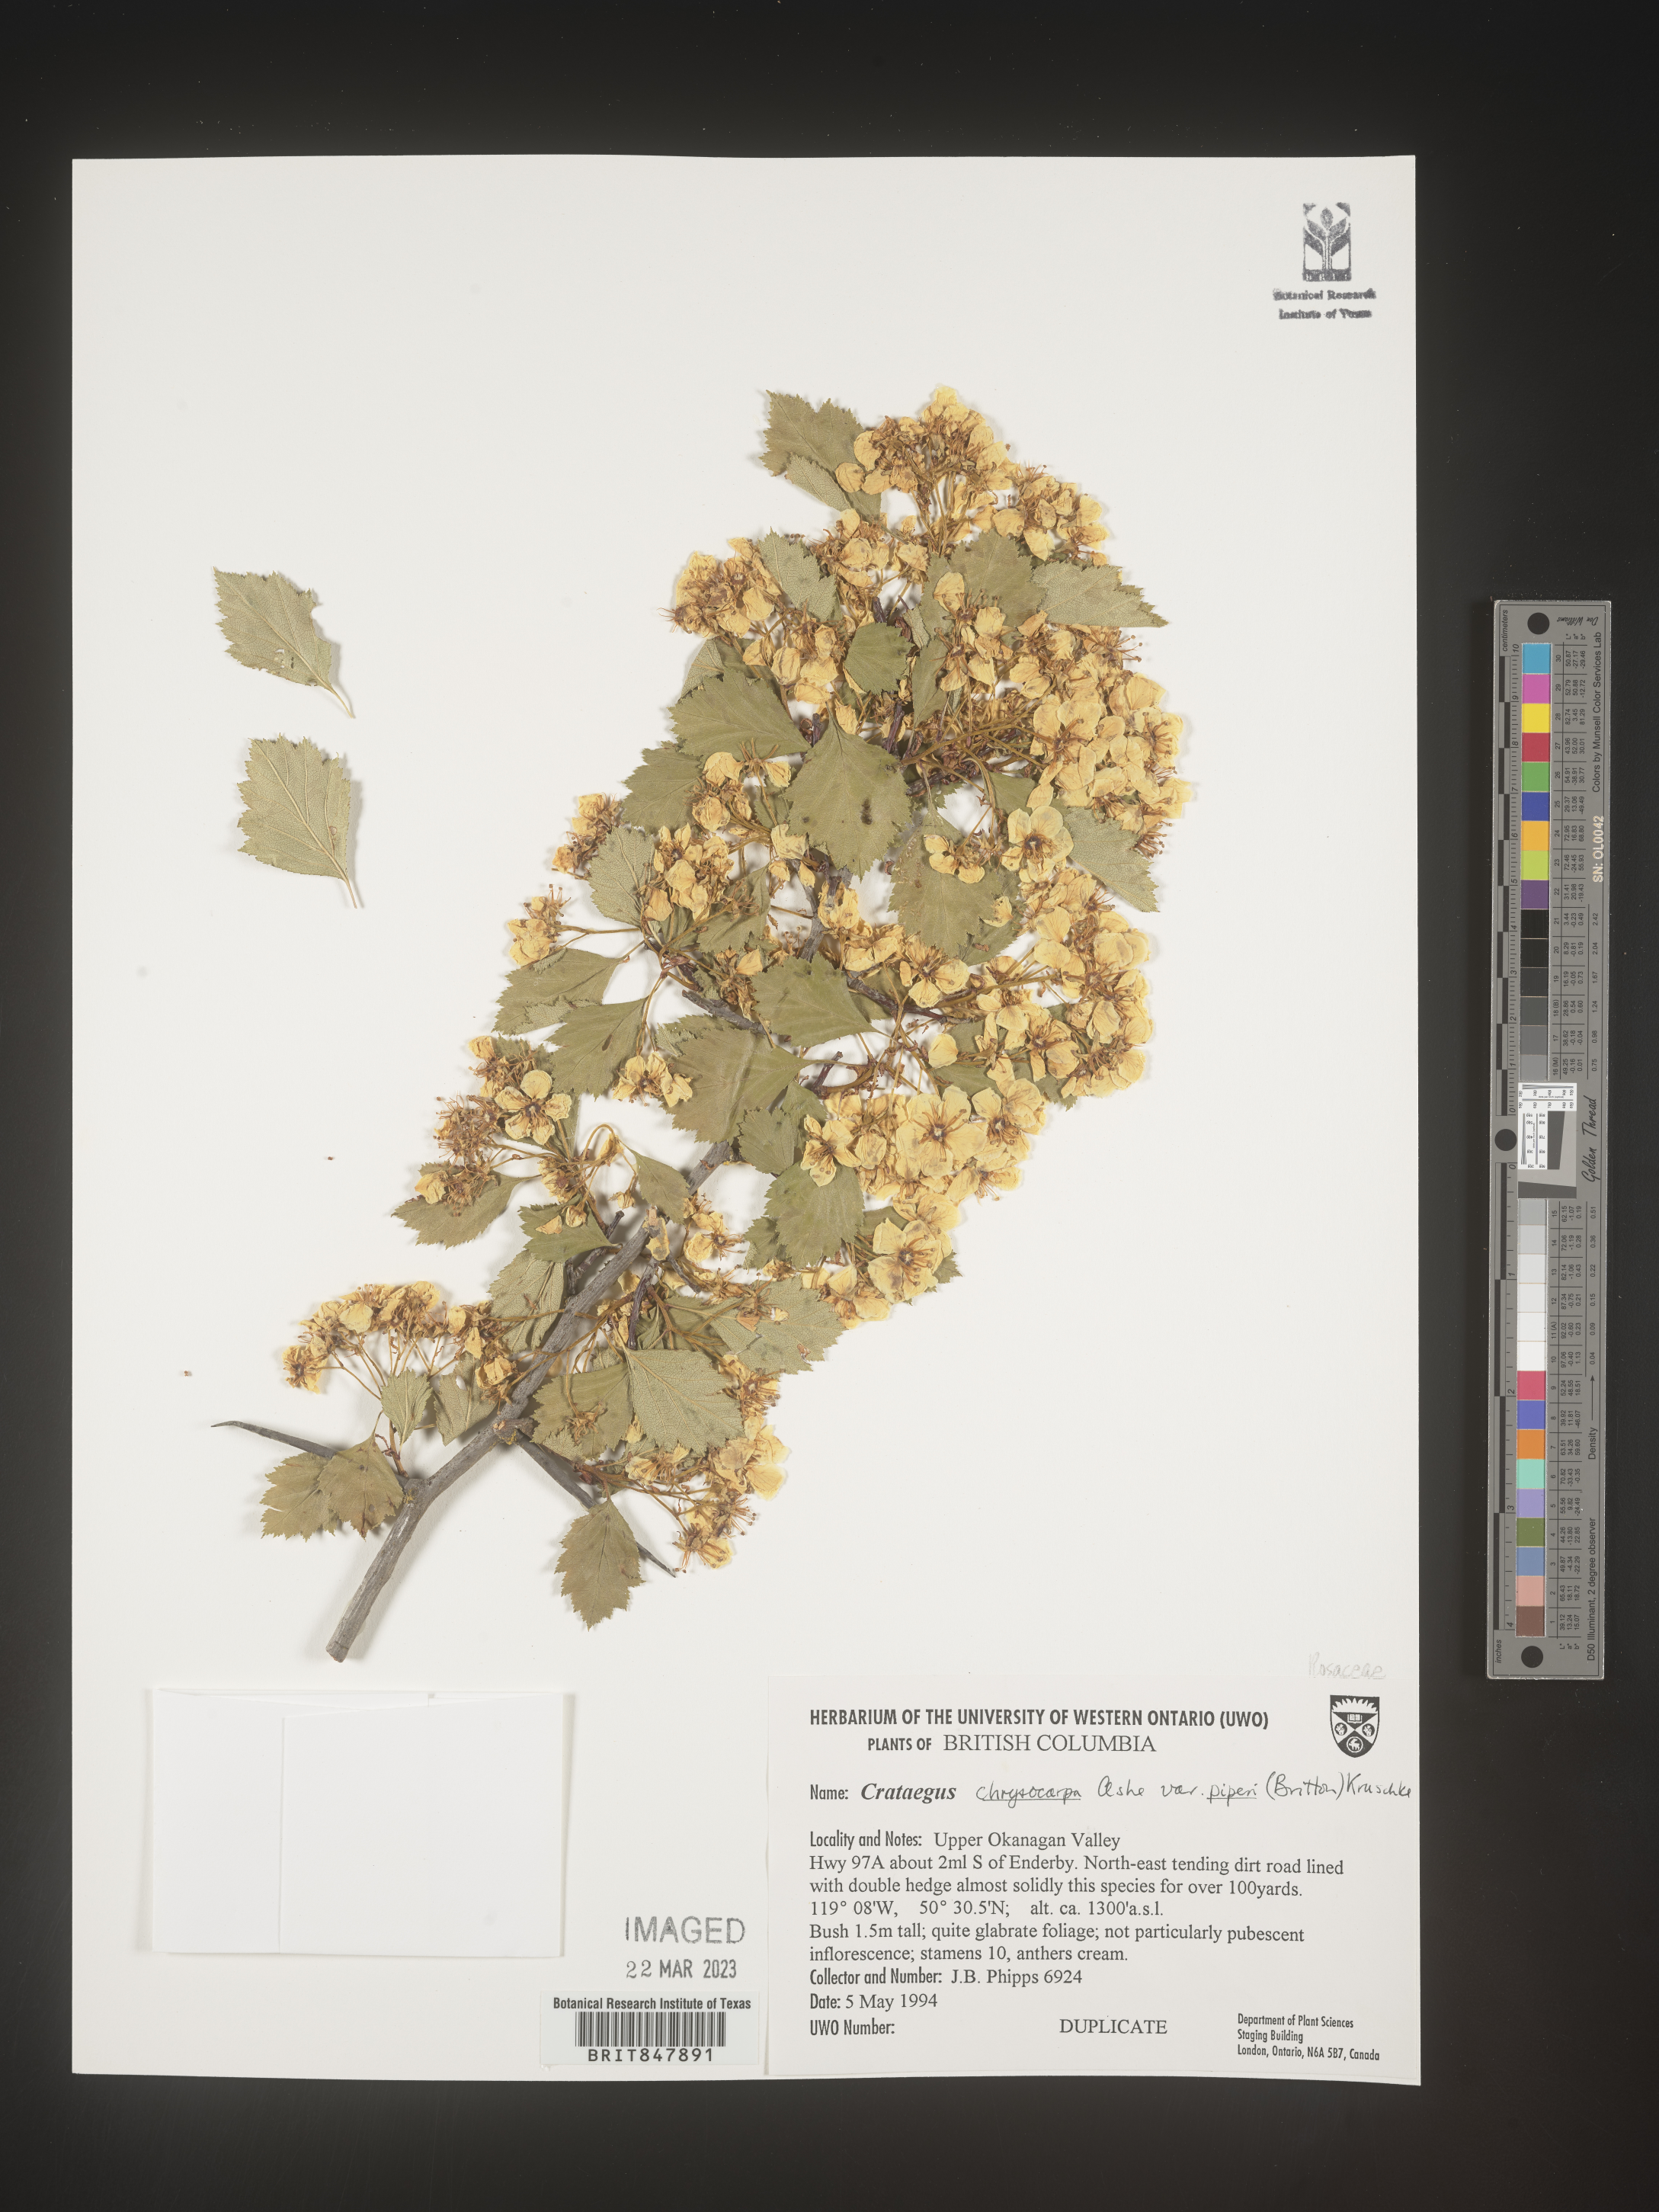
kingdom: Plantae
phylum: Tracheophyta
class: Magnoliopsida
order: Rosales
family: Rosaceae
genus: Crataegus
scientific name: Crataegus chrysocarpa
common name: Fire-berry hawthorn
